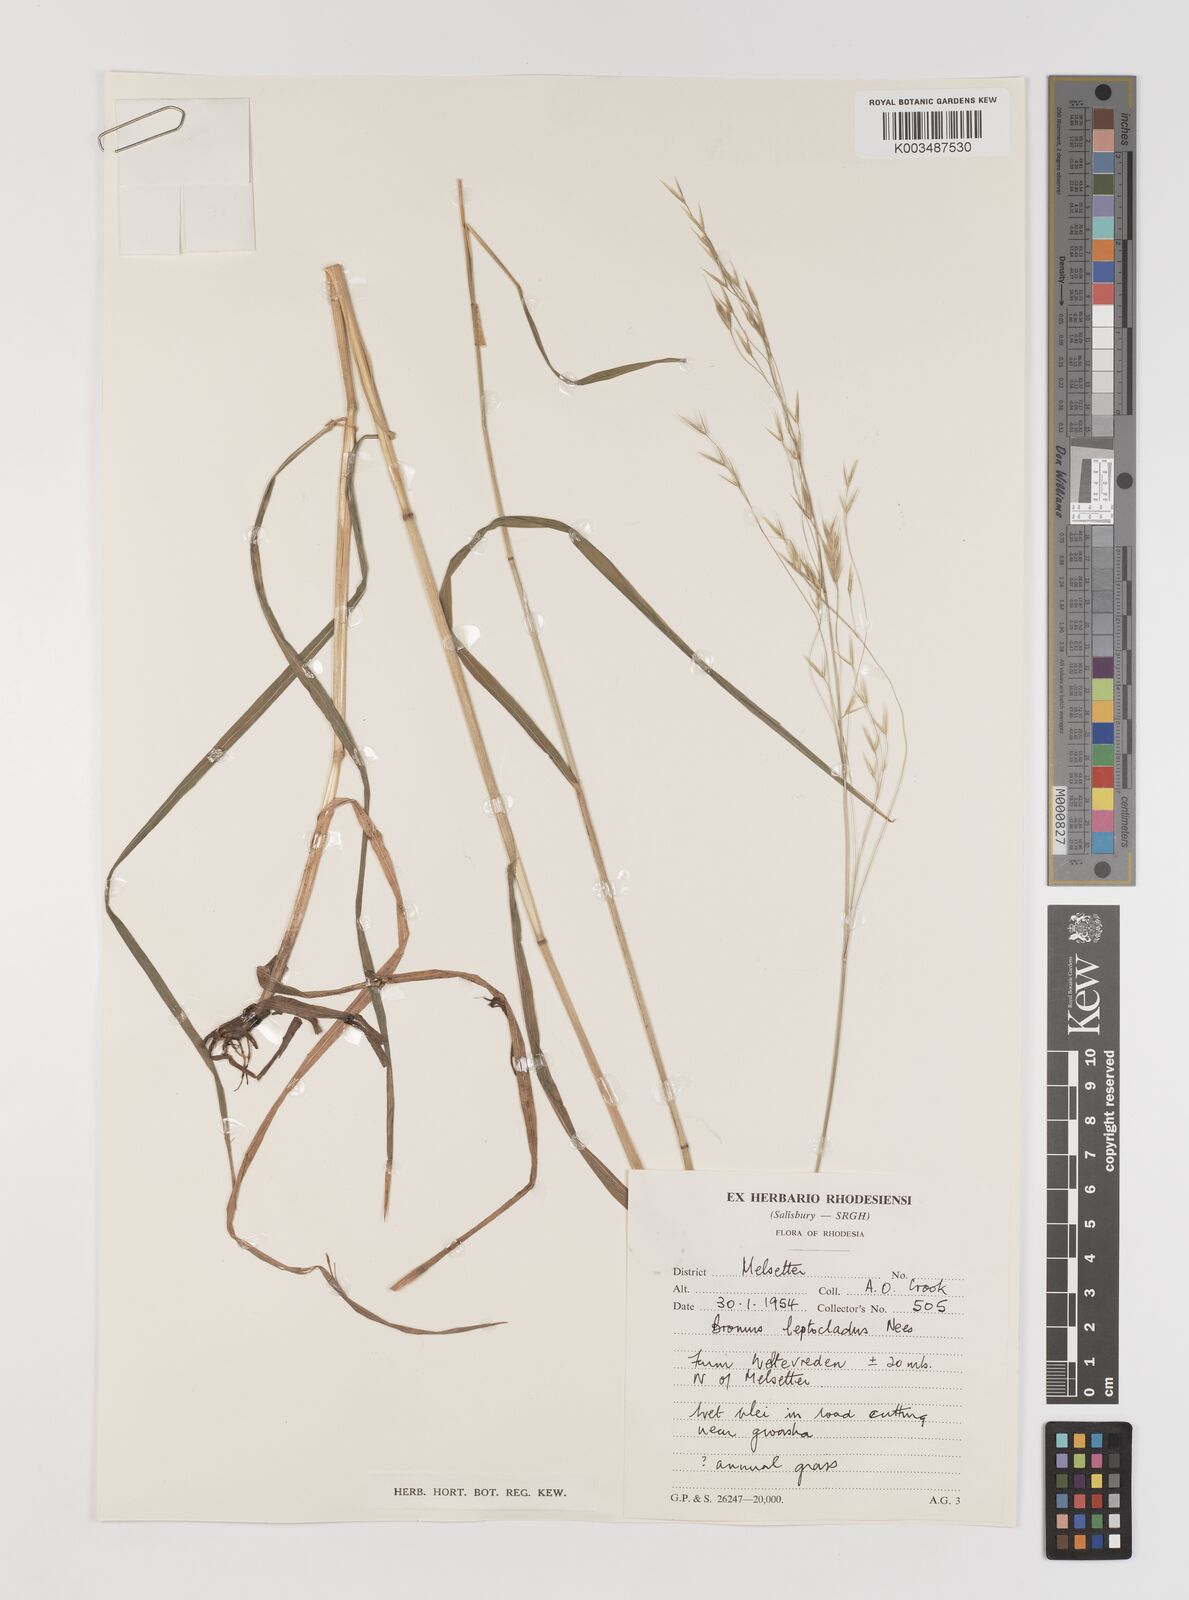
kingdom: Plantae
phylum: Tracheophyta
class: Liliopsida
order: Poales
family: Poaceae
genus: Bromus
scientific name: Bromus leptoclados
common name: Mountain bromegrass
